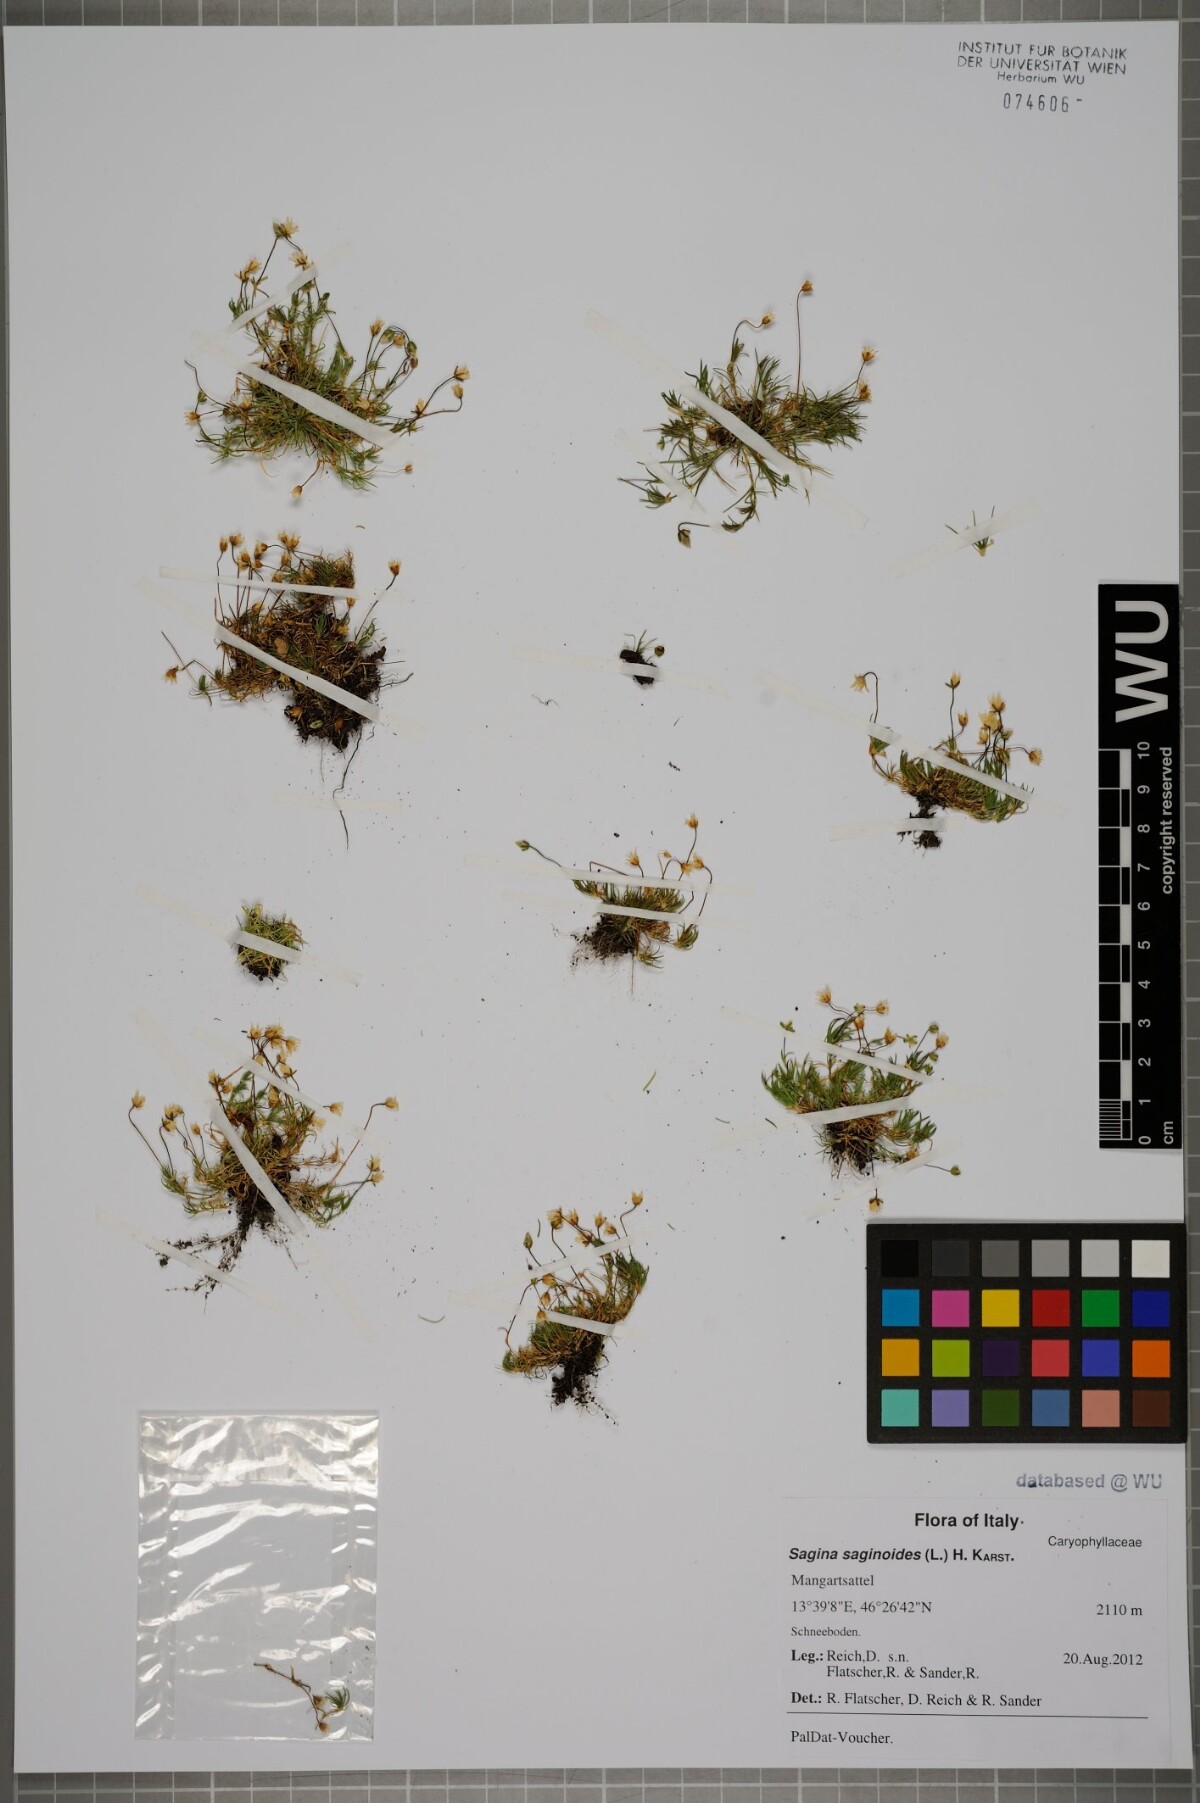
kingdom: Plantae
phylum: Tracheophyta
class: Magnoliopsida
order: Caryophyllales
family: Caryophyllaceae
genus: Sagina
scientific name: Sagina saginoides
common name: Alpine pearlwort
